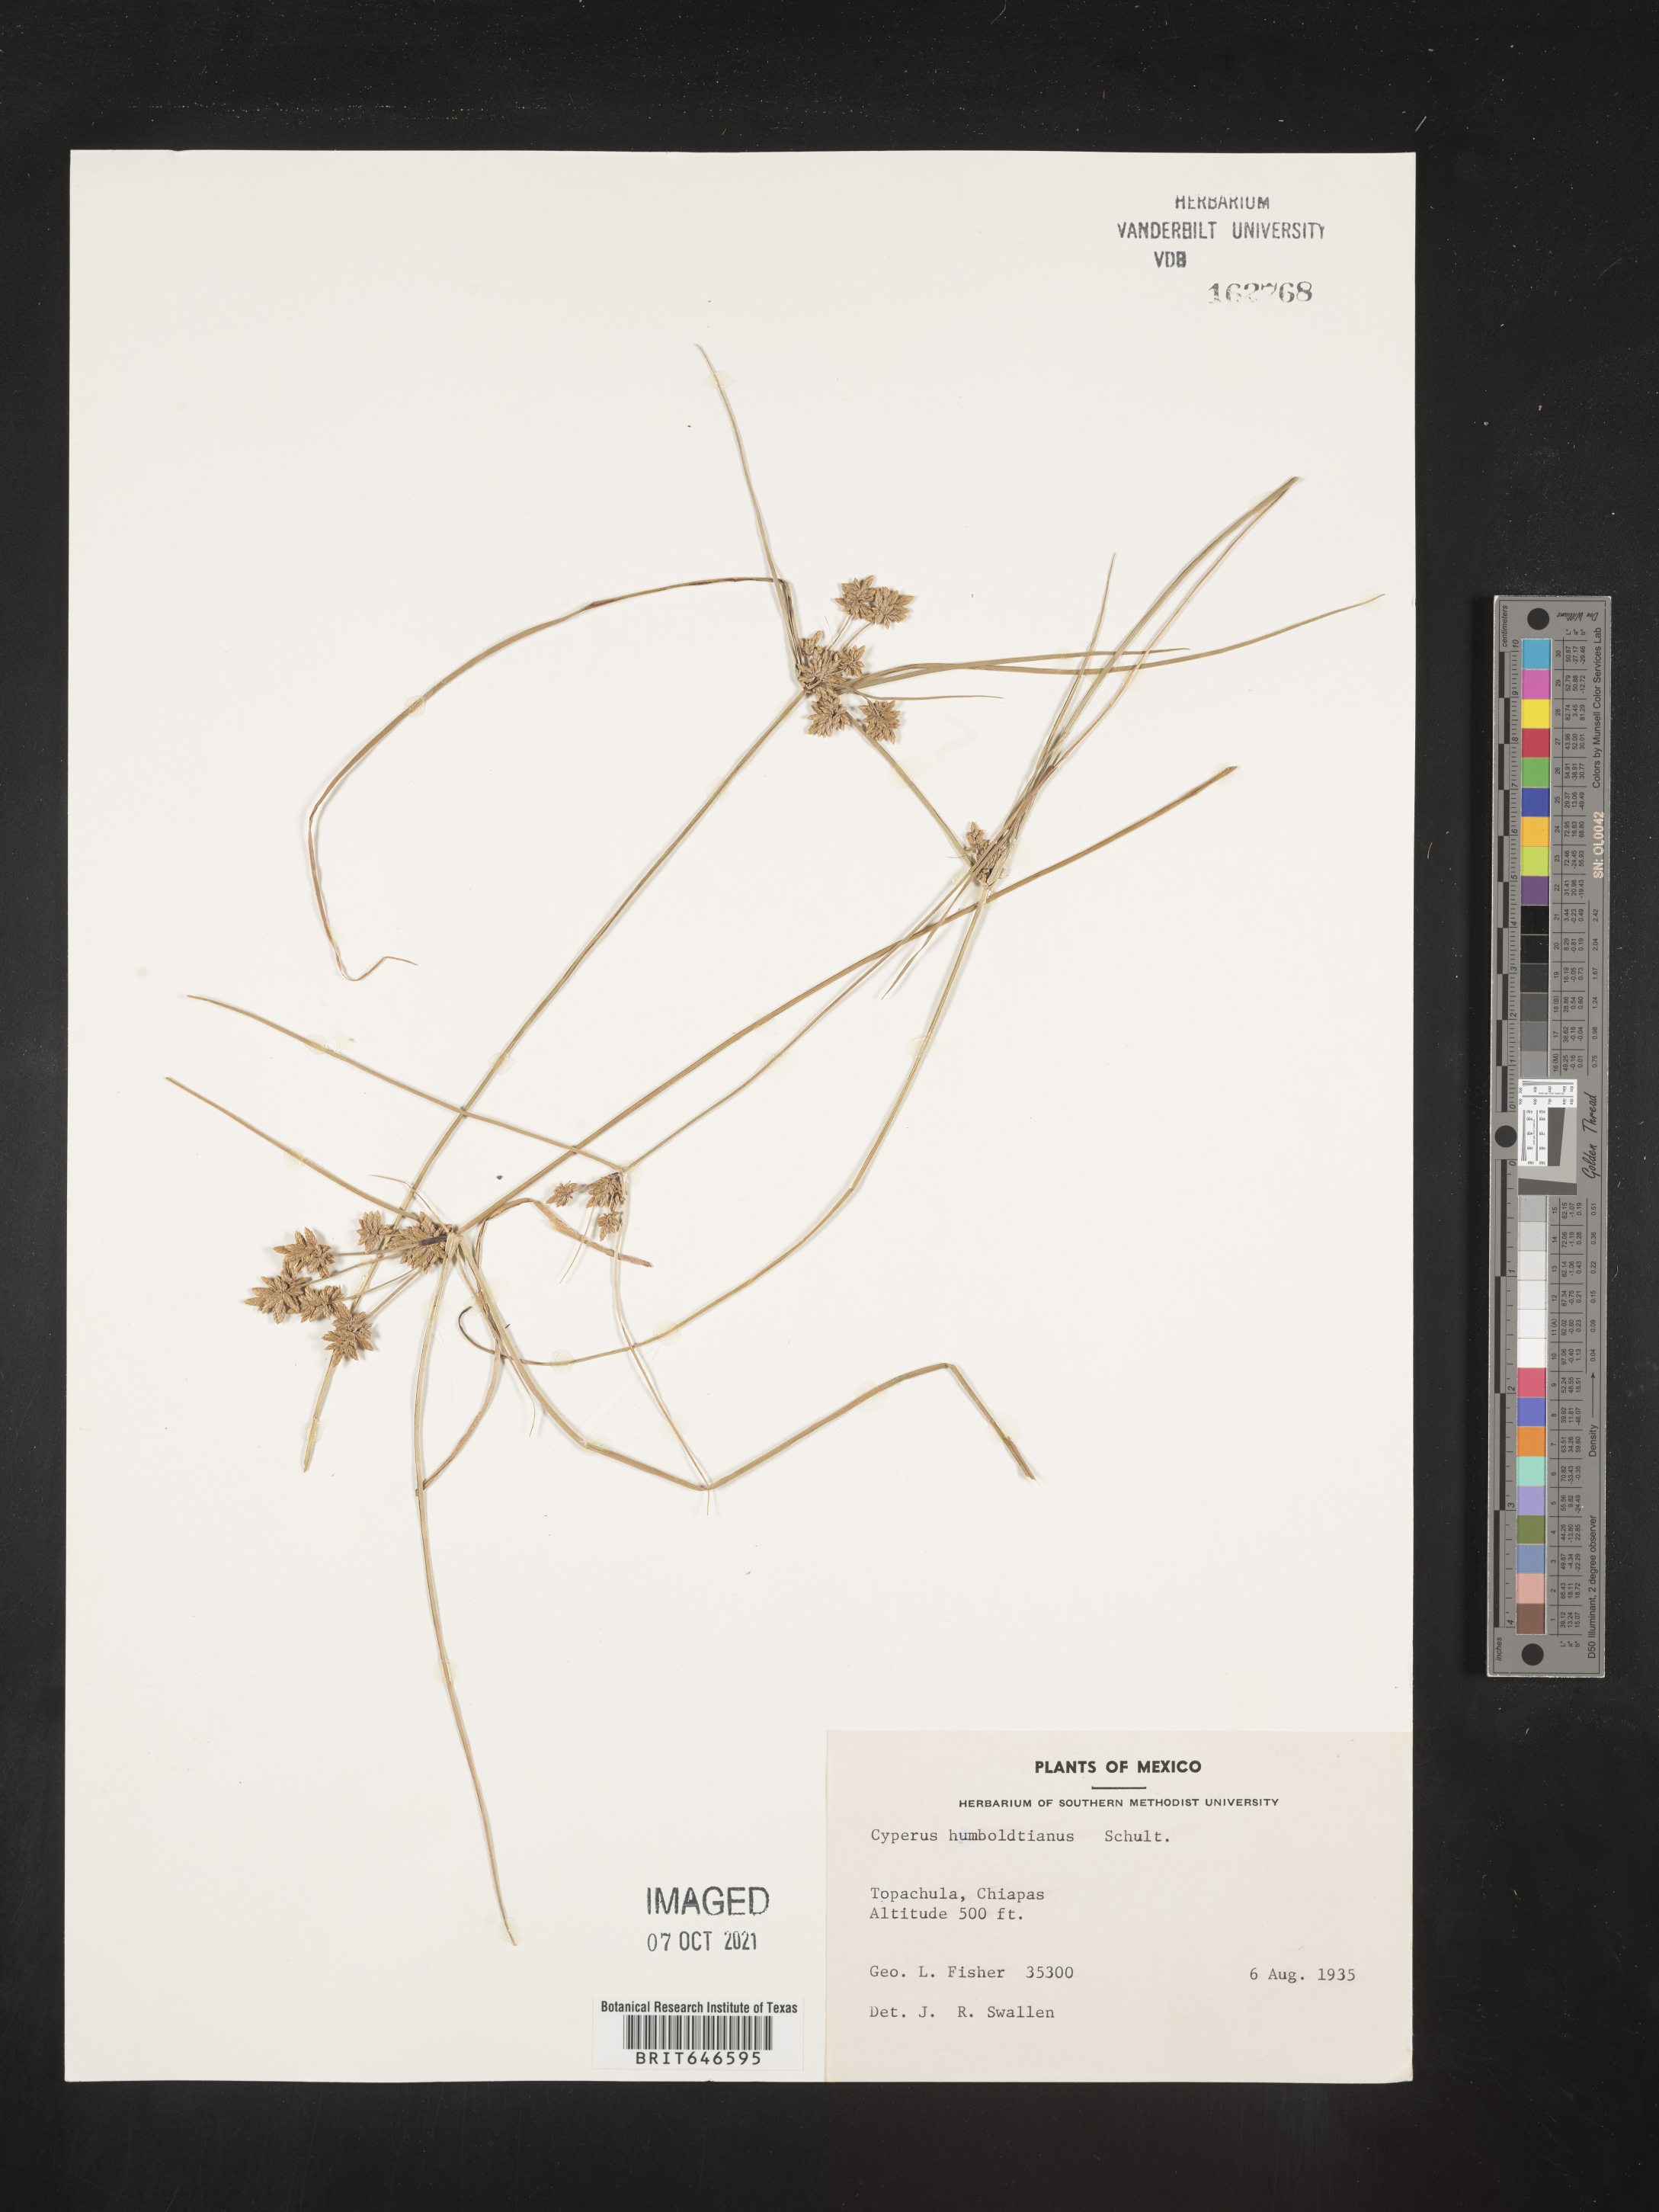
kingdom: Plantae
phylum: Tracheophyta
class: Liliopsida
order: Poales
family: Cyperaceae
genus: Cyperus
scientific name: Cyperus
